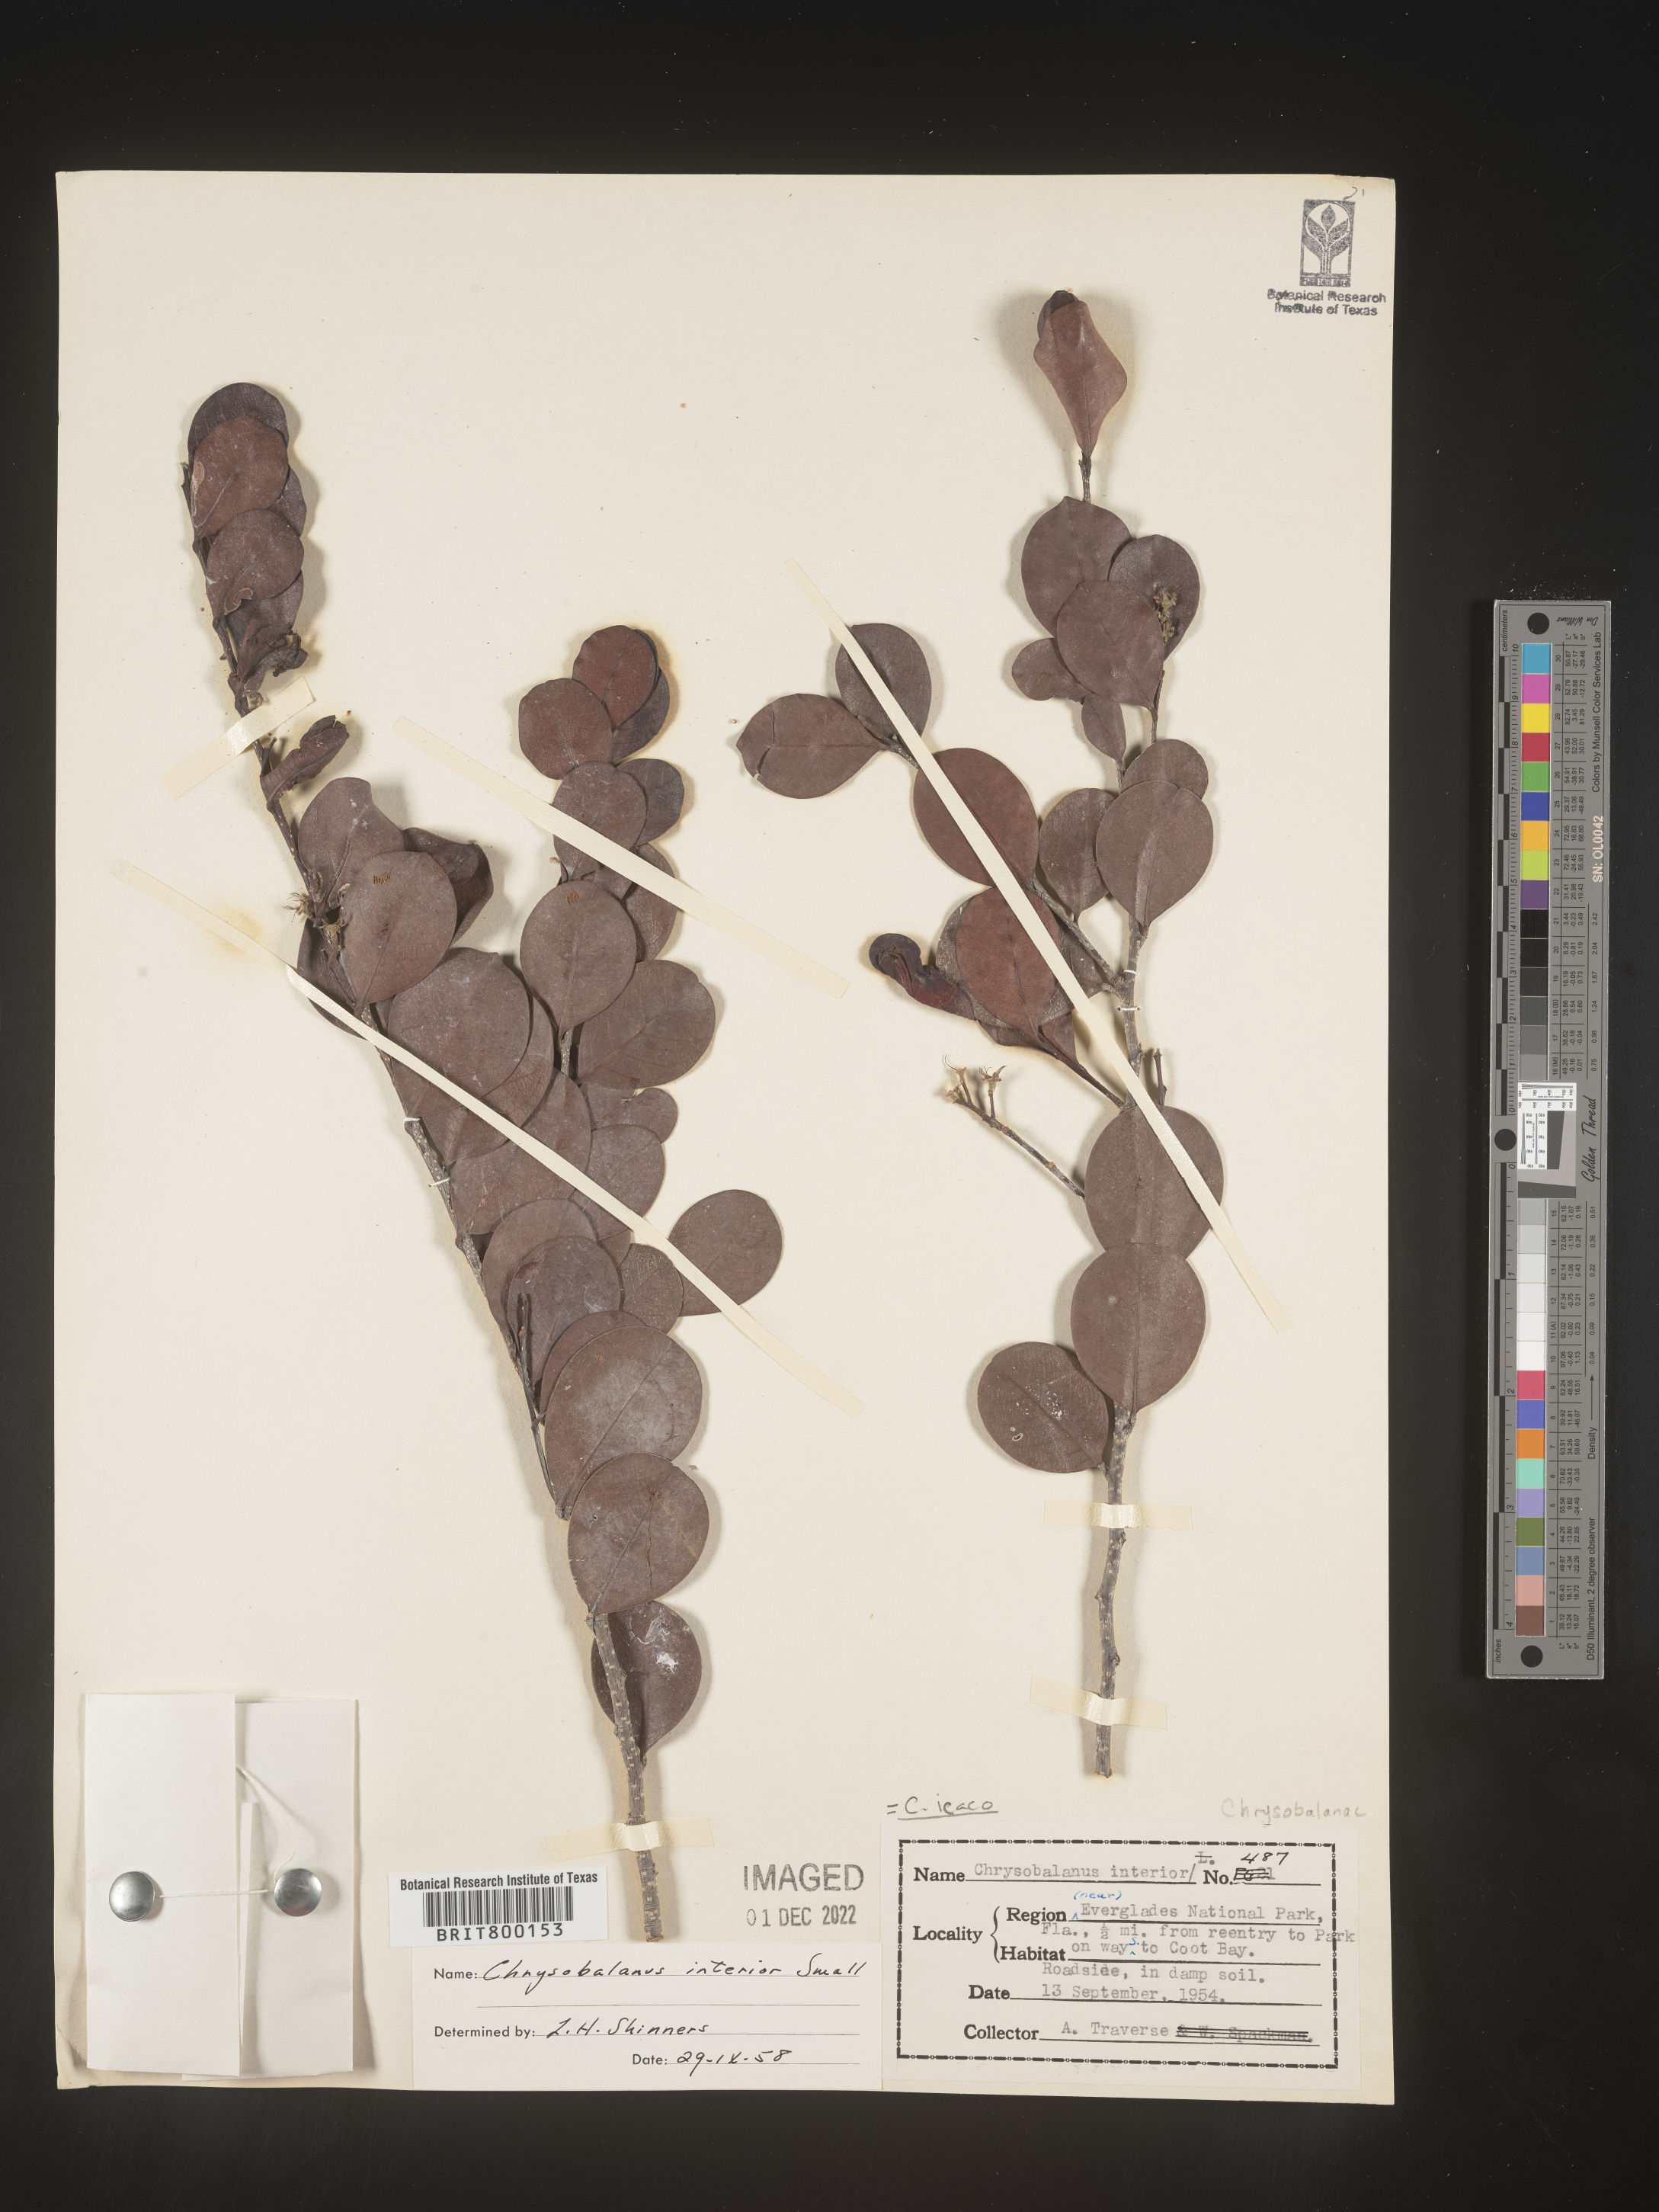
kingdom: Plantae
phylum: Tracheophyta
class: Magnoliopsida
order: Malpighiales
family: Chrysobalanaceae
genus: Chrysobalanus
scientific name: Chrysobalanus icaco
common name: Coco plum
